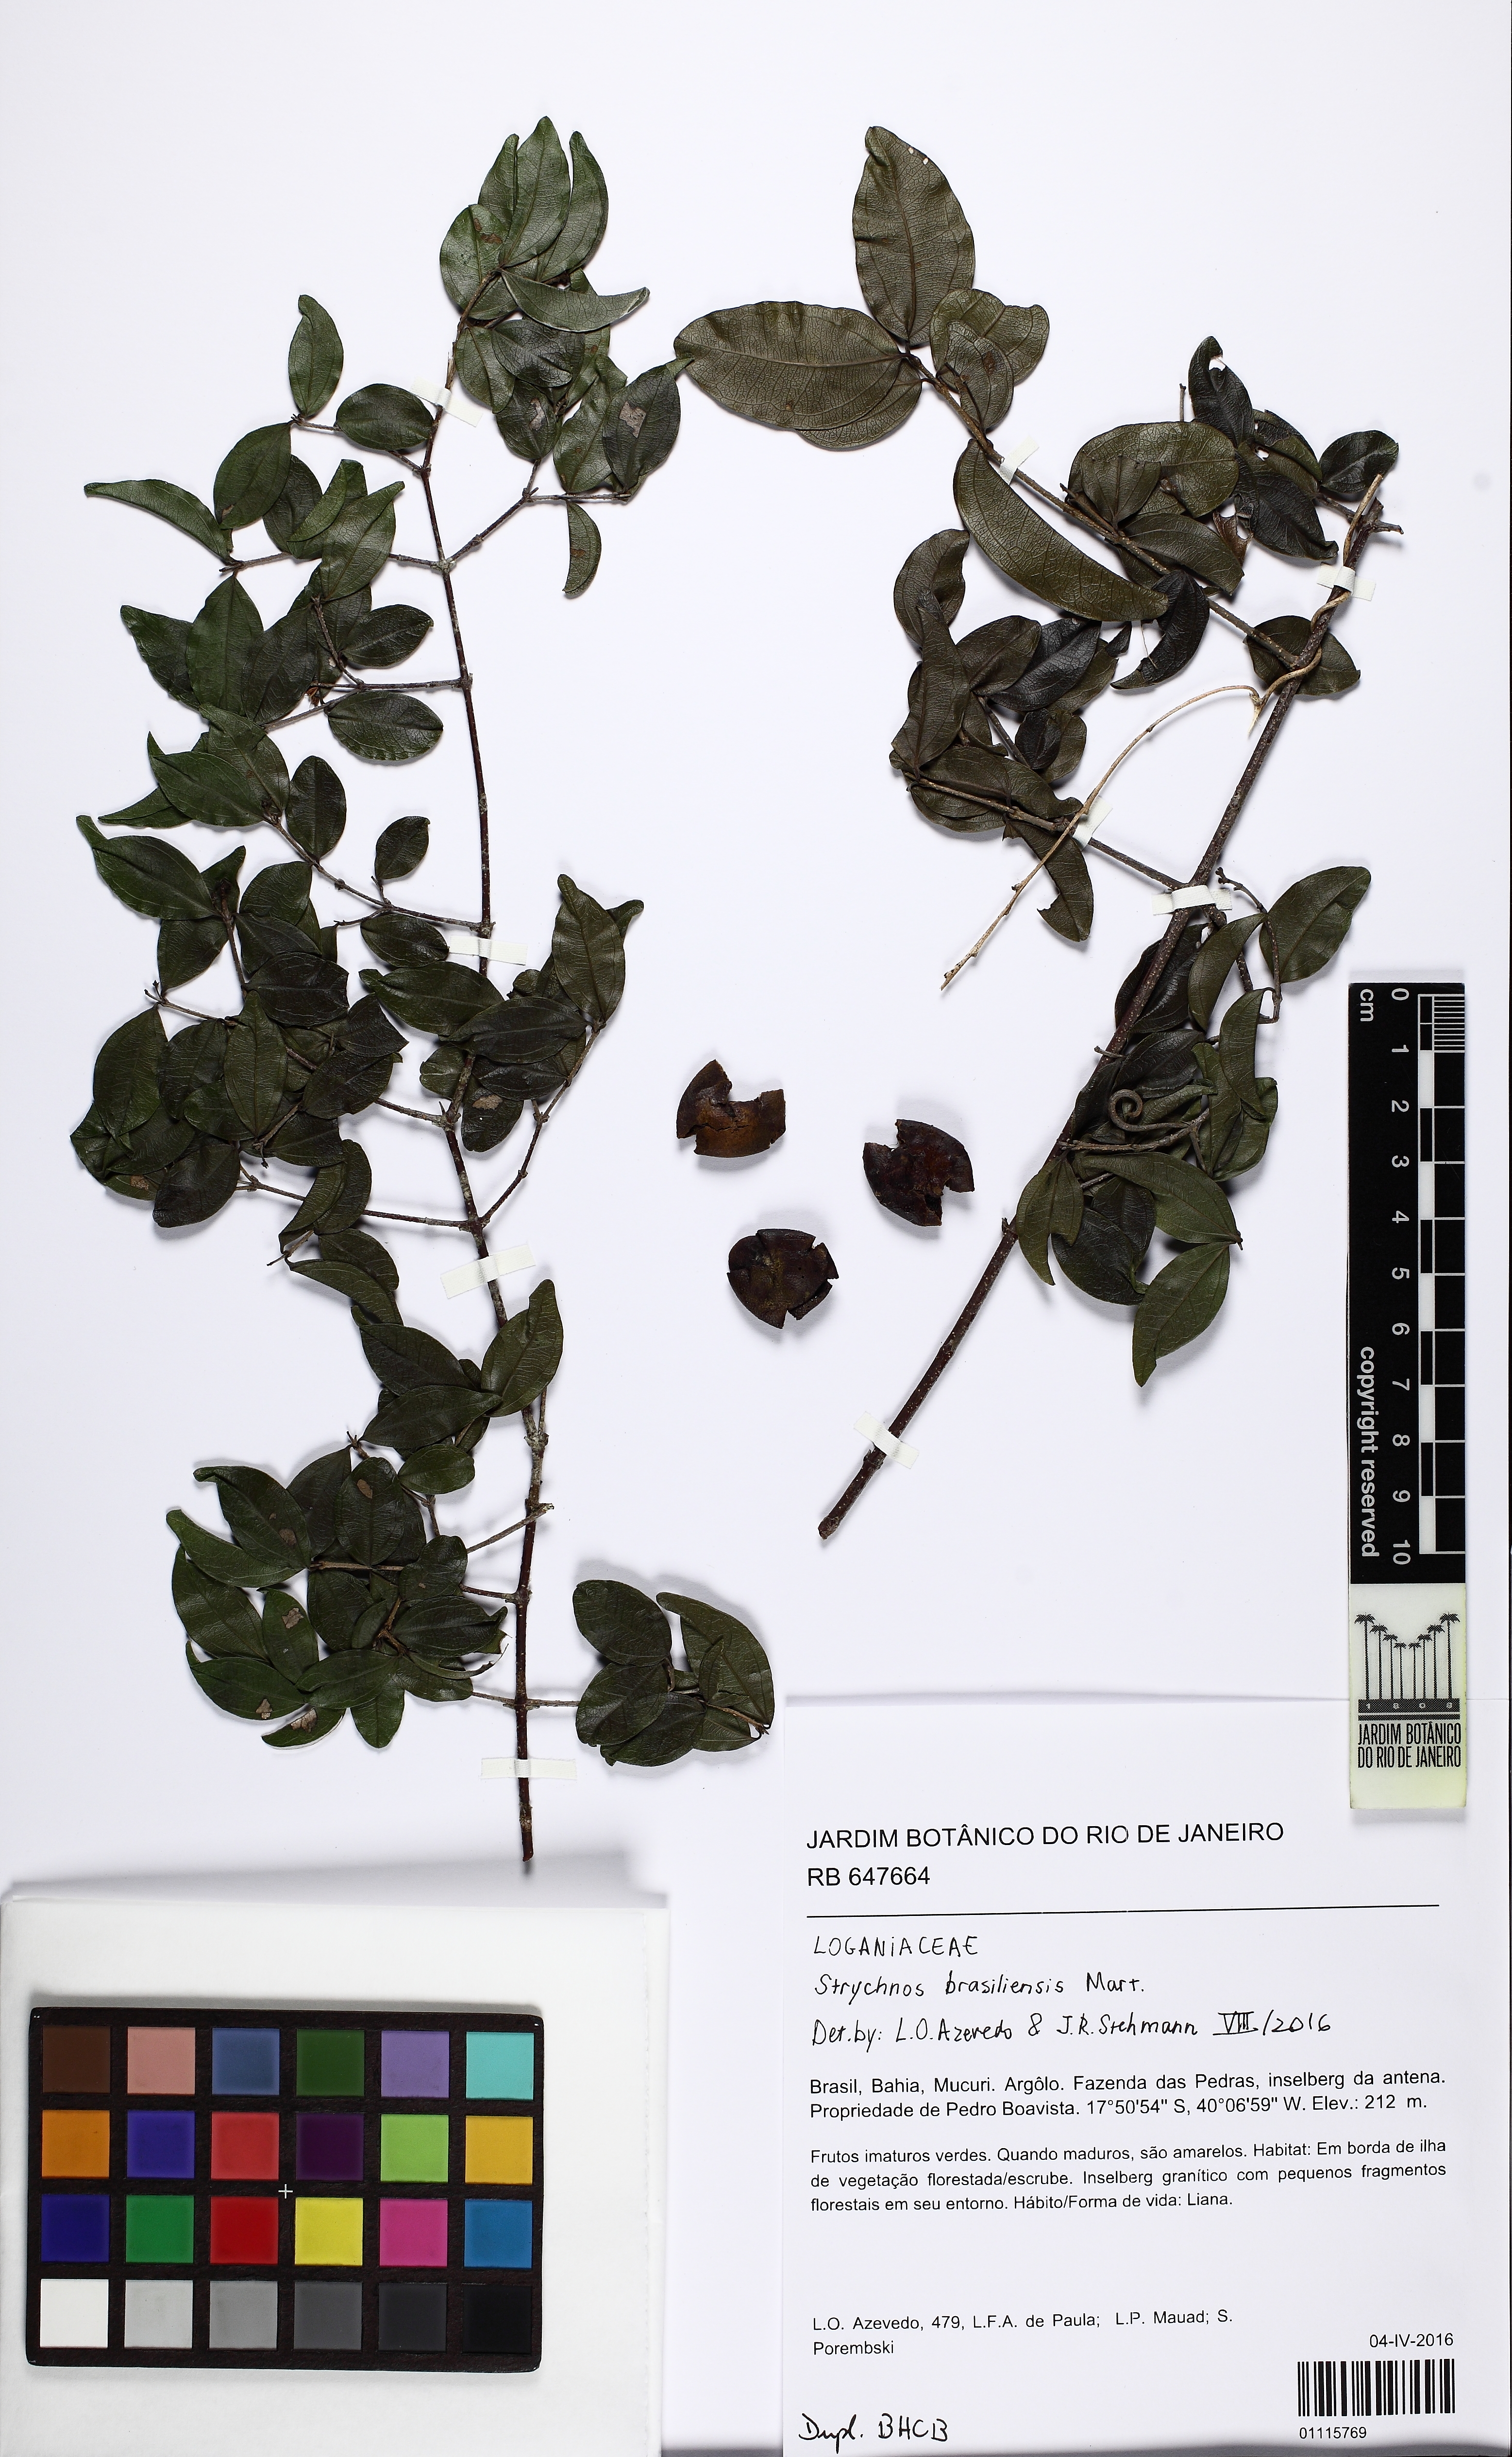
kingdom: Plantae
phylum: Tracheophyta
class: Magnoliopsida
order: Gentianales
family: Loganiaceae
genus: Strychnos
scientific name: Strychnos parvifolia
